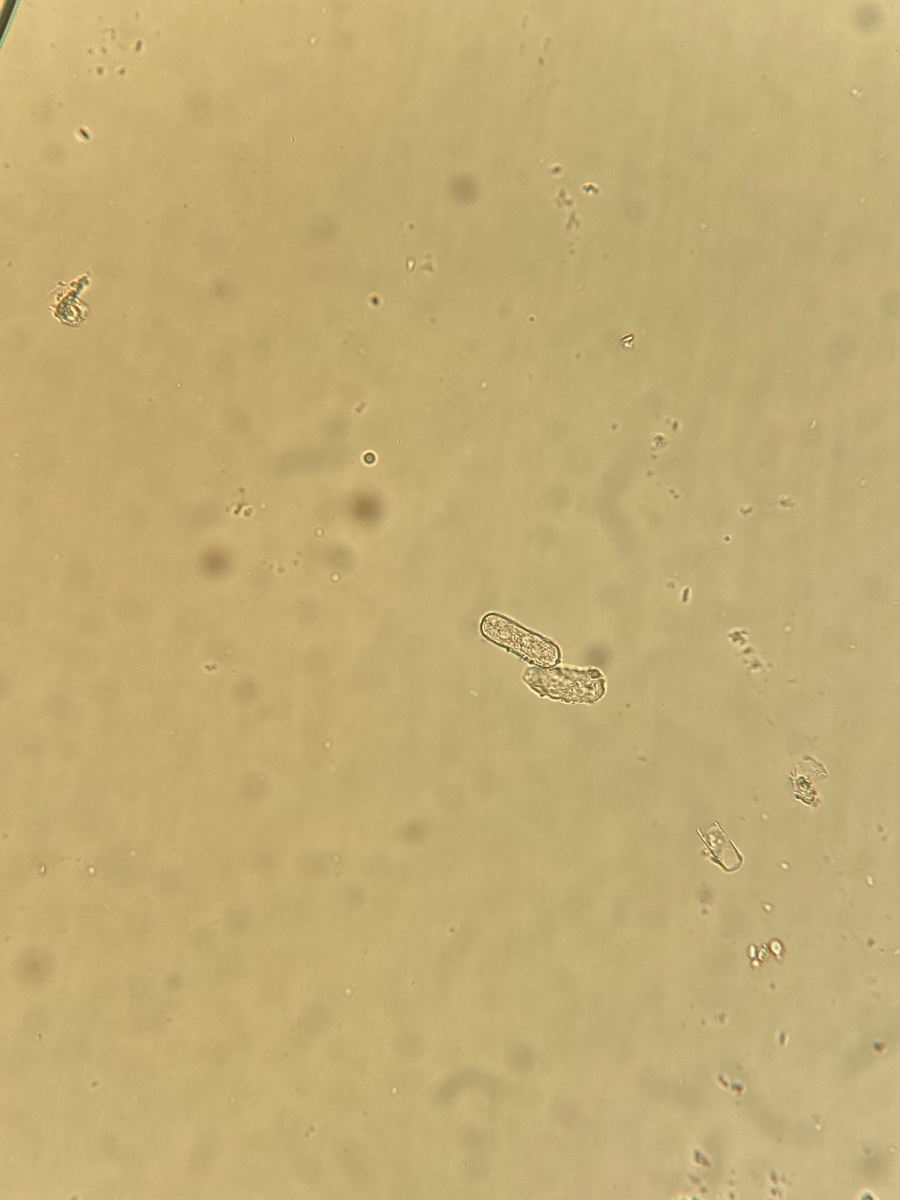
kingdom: Fungi
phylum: Ascomycota
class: Leotiomycetes
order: Helotiales
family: Erysiphaceae
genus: Erysiphe
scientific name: Erysiphe berberidis
